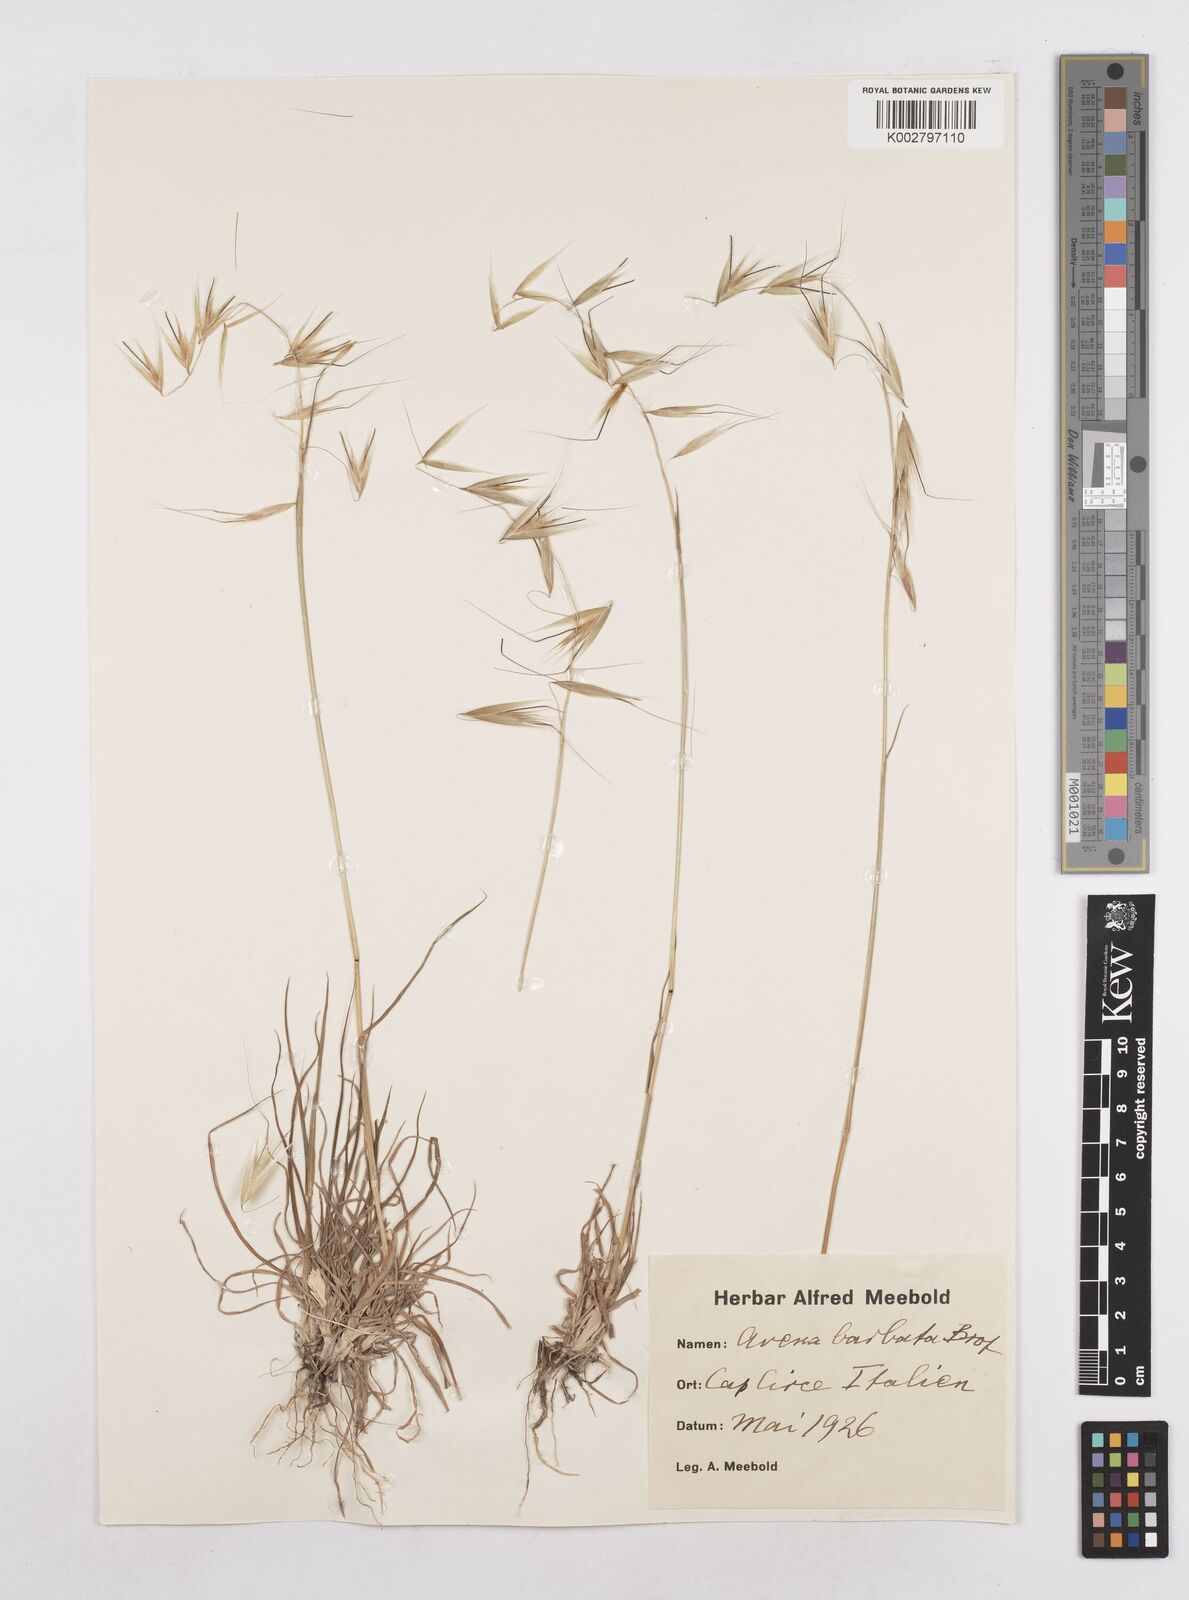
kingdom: Plantae
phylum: Tracheophyta
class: Liliopsida
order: Poales
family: Poaceae
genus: Avena
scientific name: Avena
